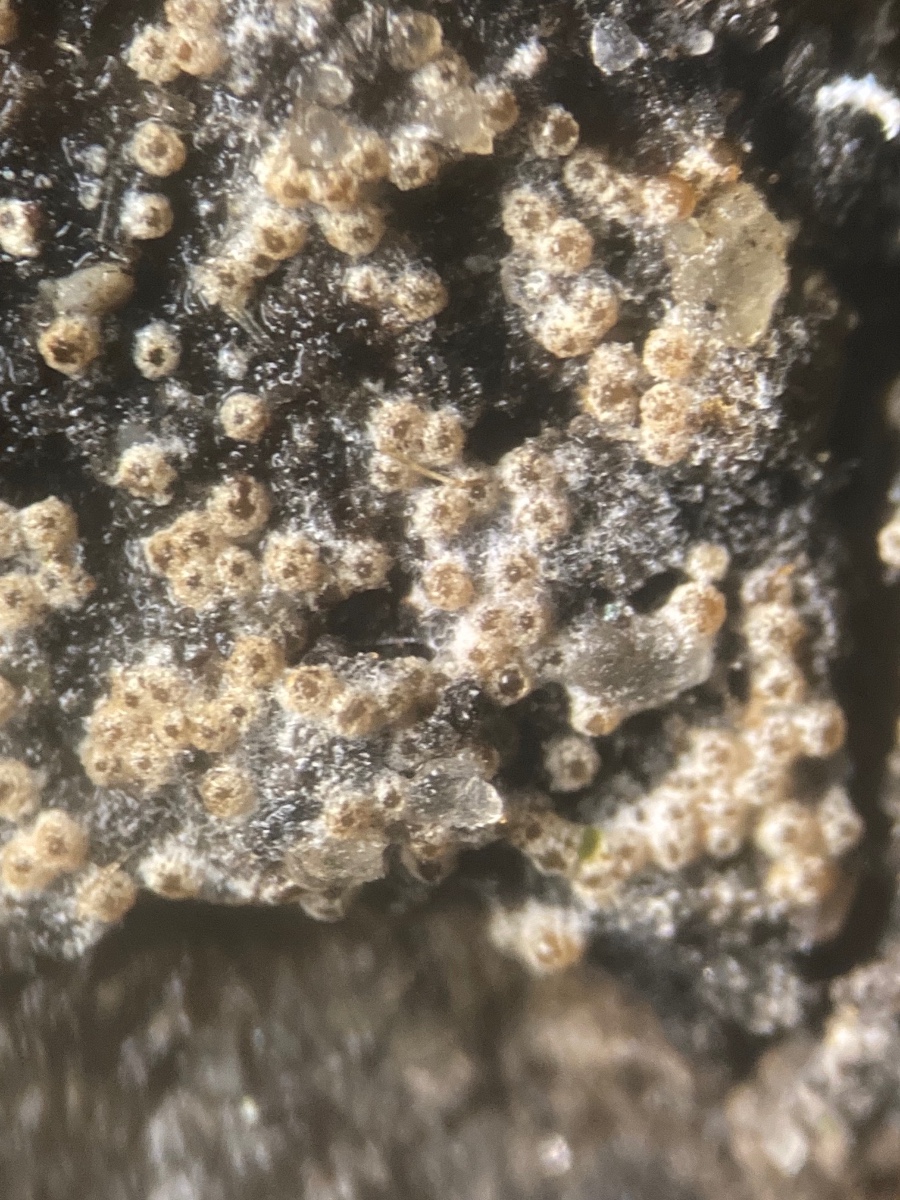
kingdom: Fungi
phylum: Ascomycota
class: Sordariomycetes
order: Hypocreales
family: Hypocreaceae
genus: Protocrea
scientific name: Protocrea farinosa
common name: krystalpore-kødkerne
